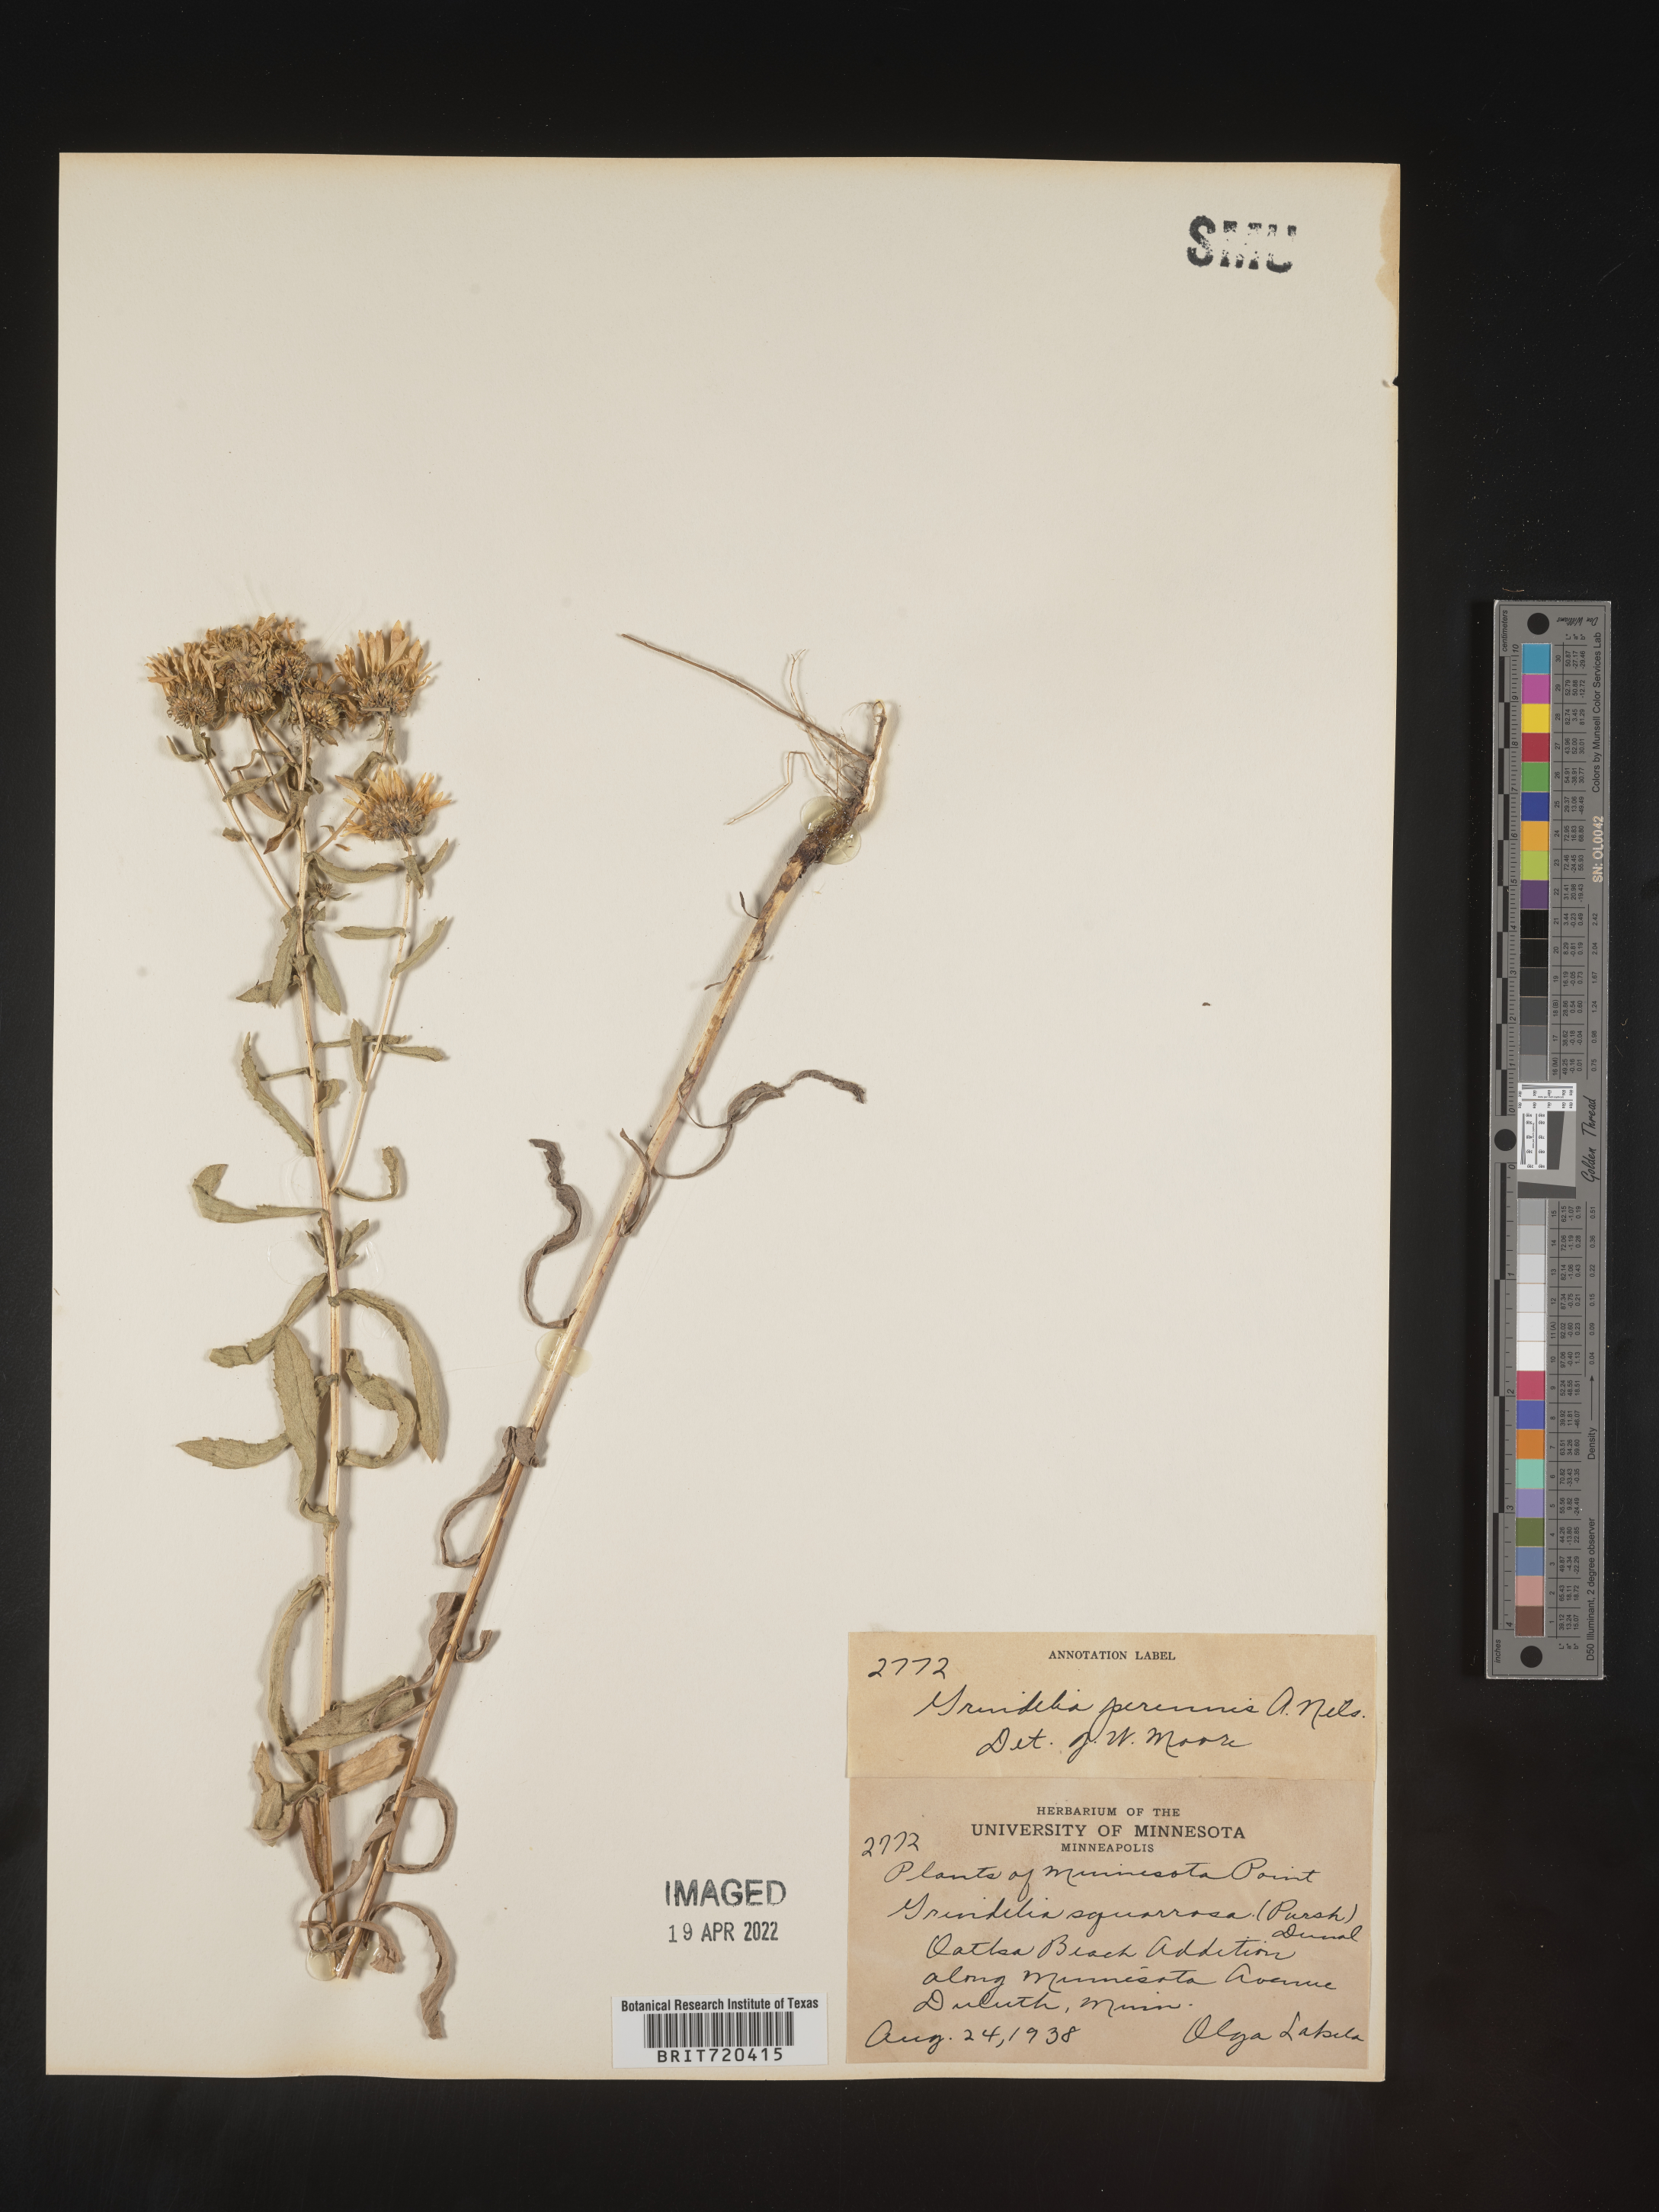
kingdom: Plantae
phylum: Tracheophyta
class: Magnoliopsida
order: Asterales
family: Asteraceae
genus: Grindelia
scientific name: Grindelia squarrosa
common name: Curly-cup gumweed
